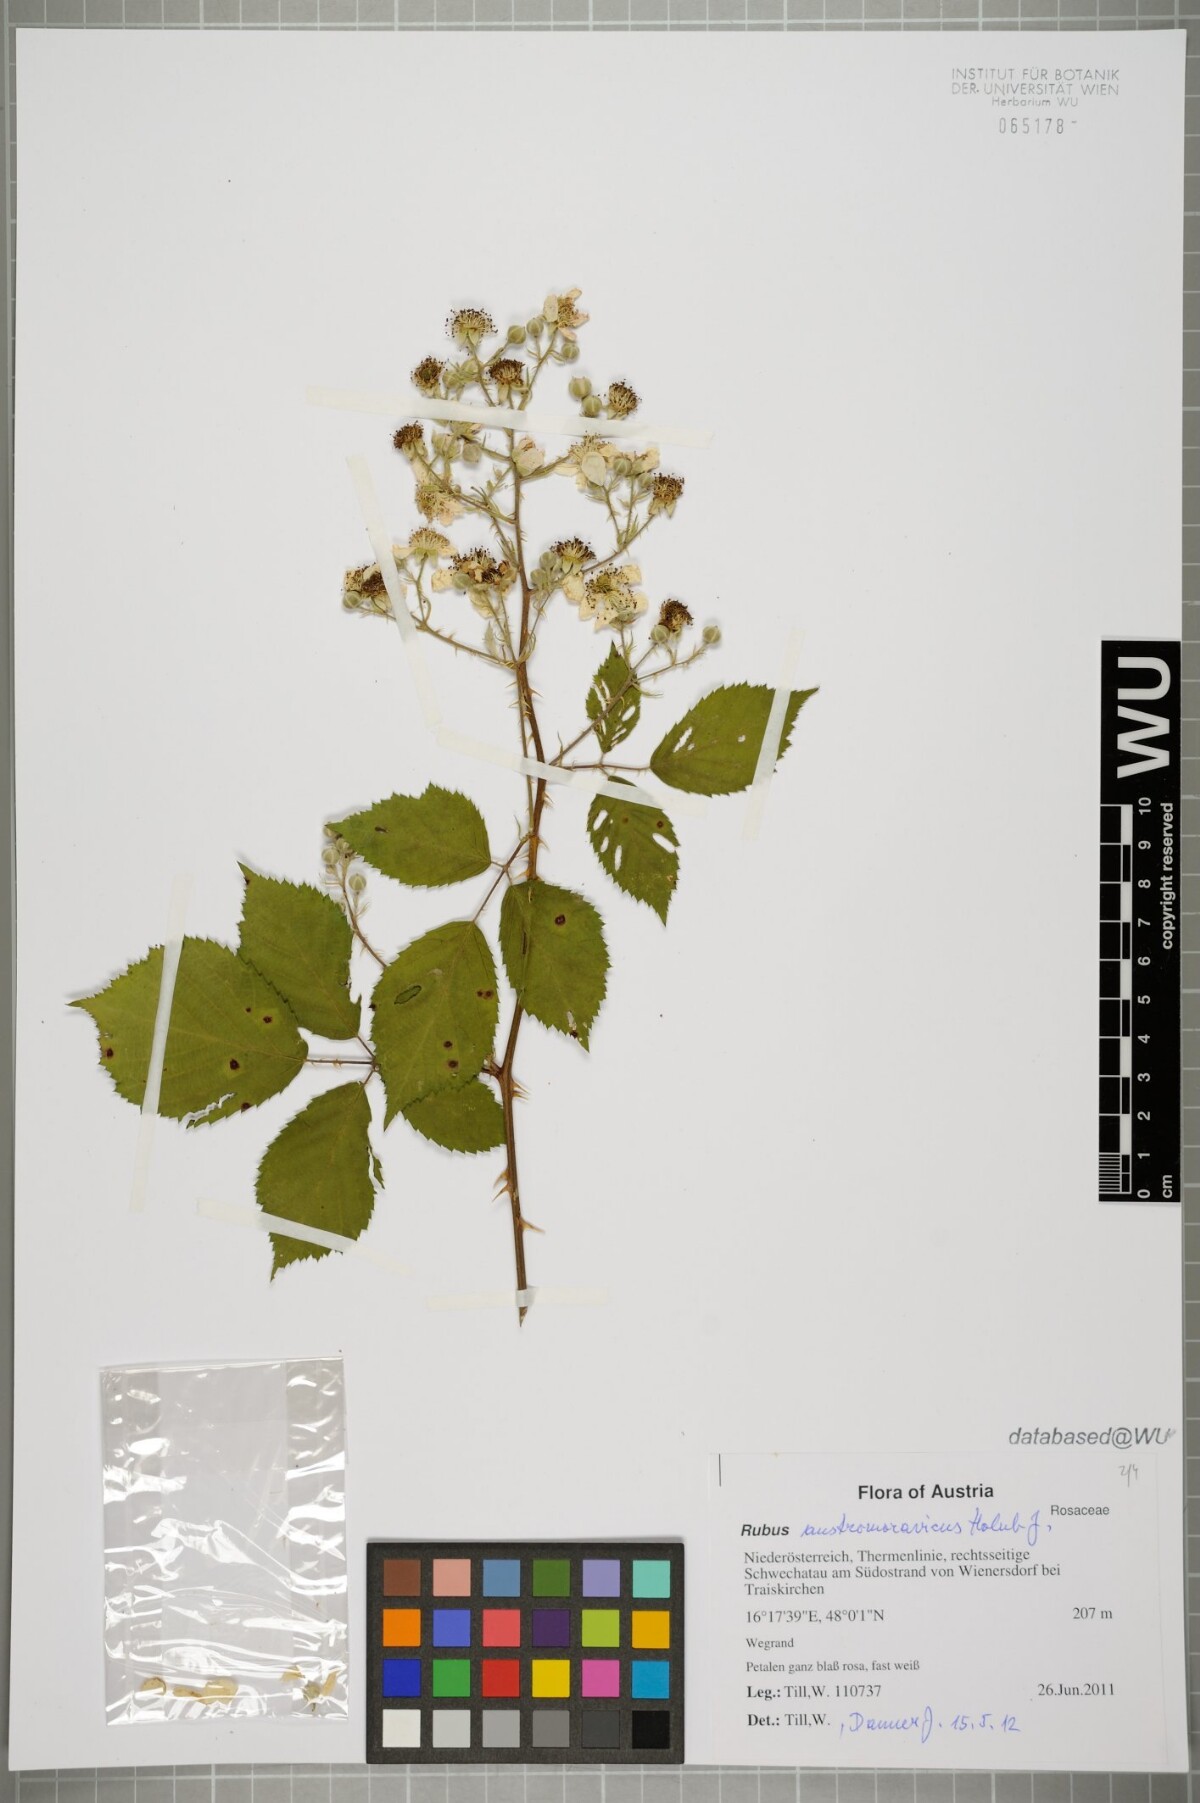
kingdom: Plantae
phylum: Tracheophyta
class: Magnoliopsida
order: Rosales
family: Rosaceae
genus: Rubus
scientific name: Rubus austromoravicus
